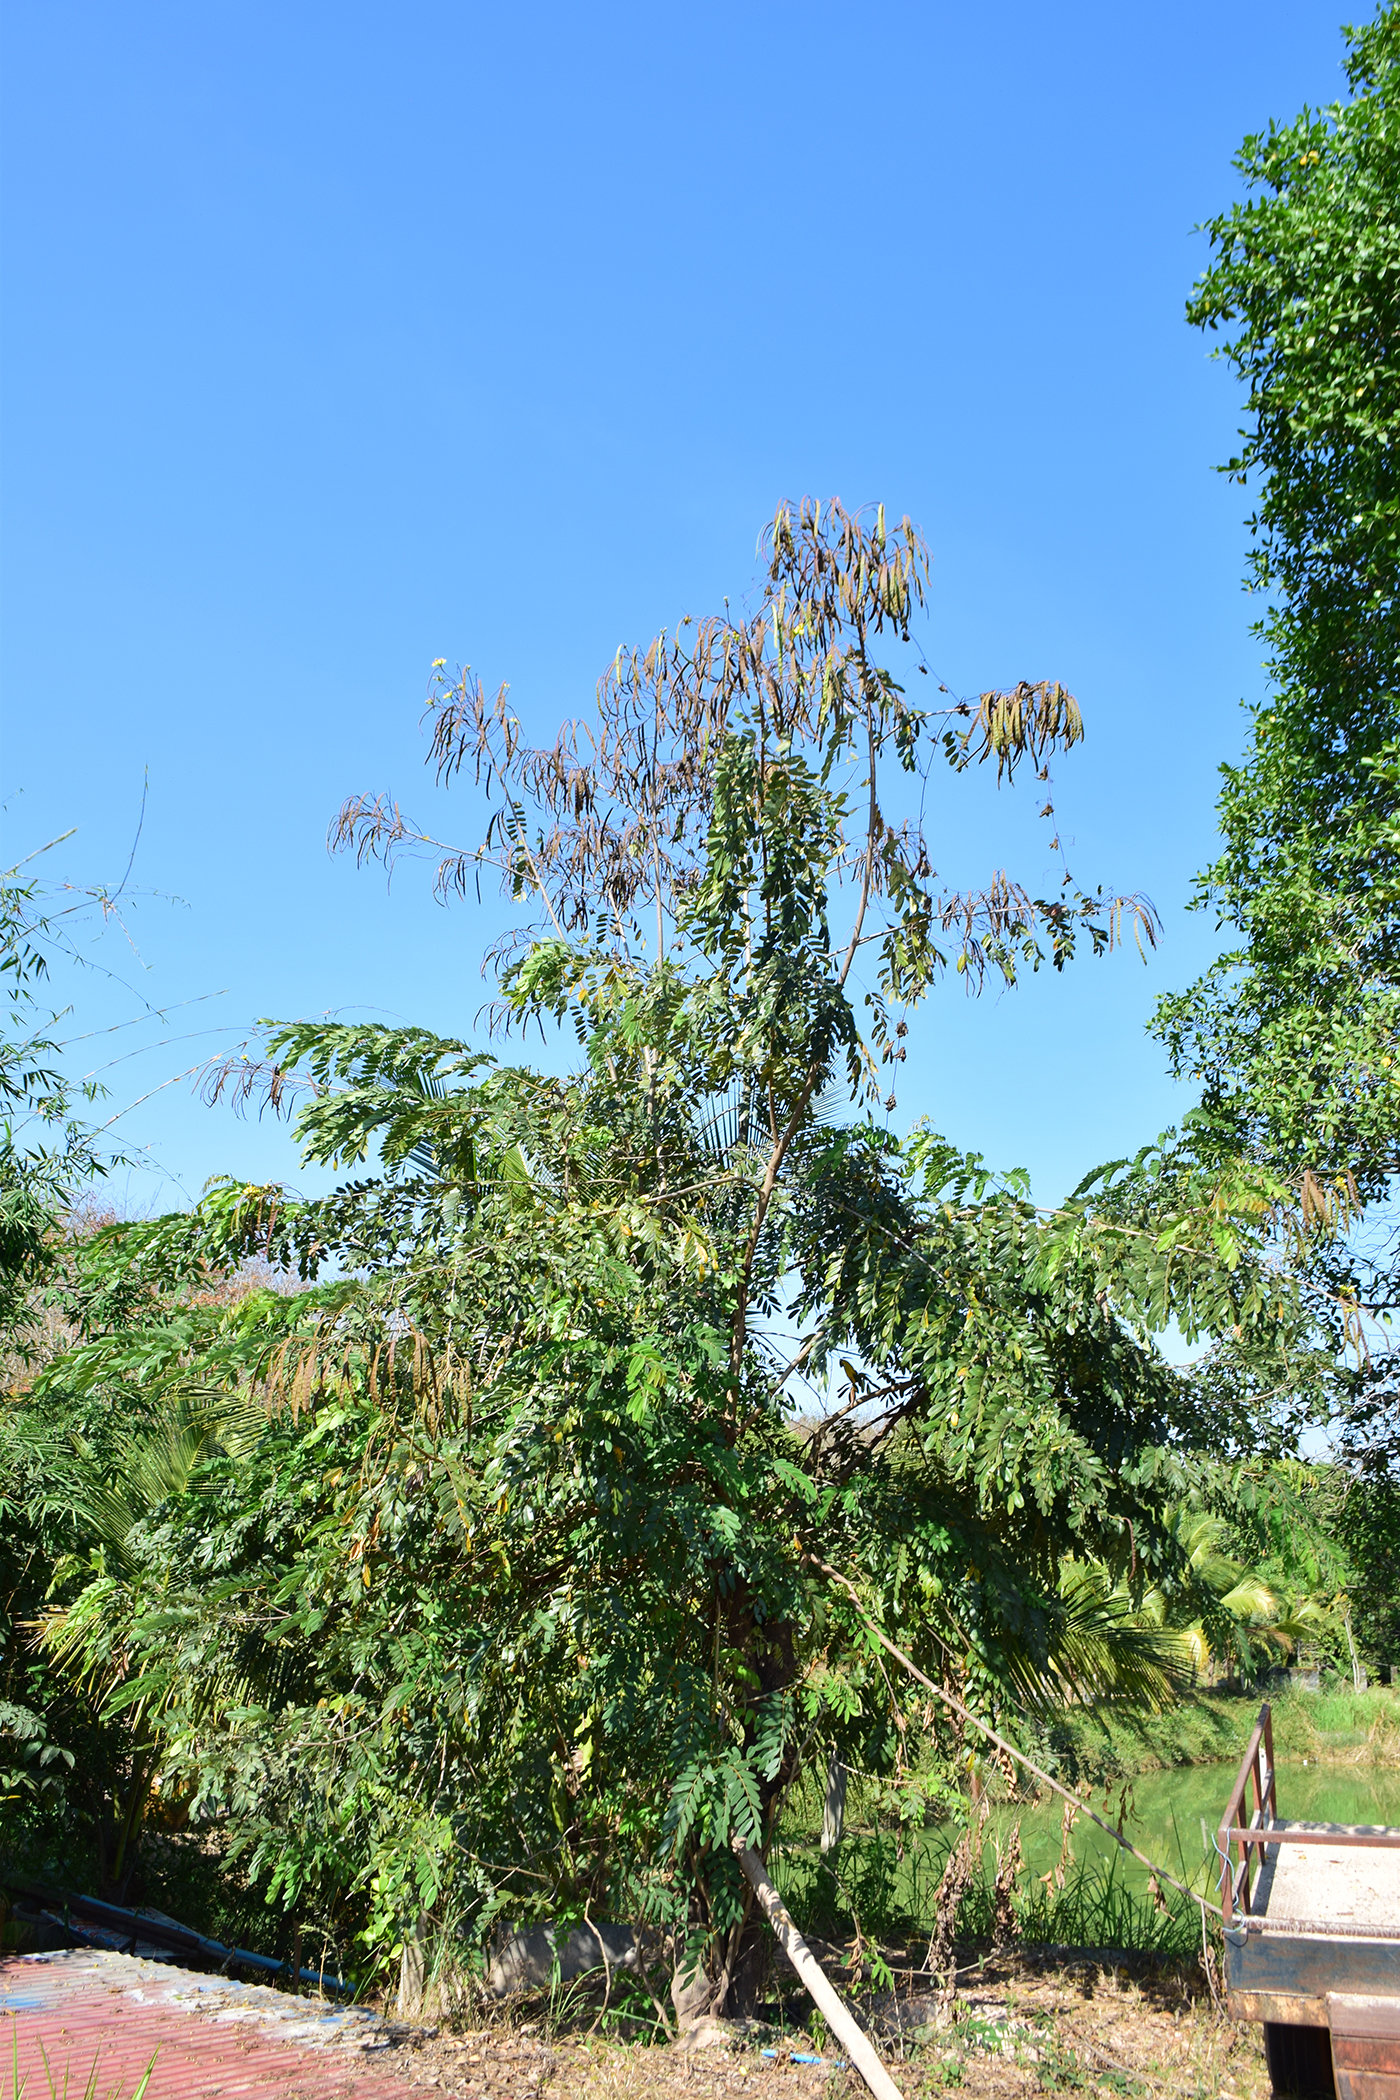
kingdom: Plantae
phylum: Tracheophyta
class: Magnoliopsida
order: Fabales
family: Fabaceae
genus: Senna
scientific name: Senna siamea
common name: Siamese cassia
